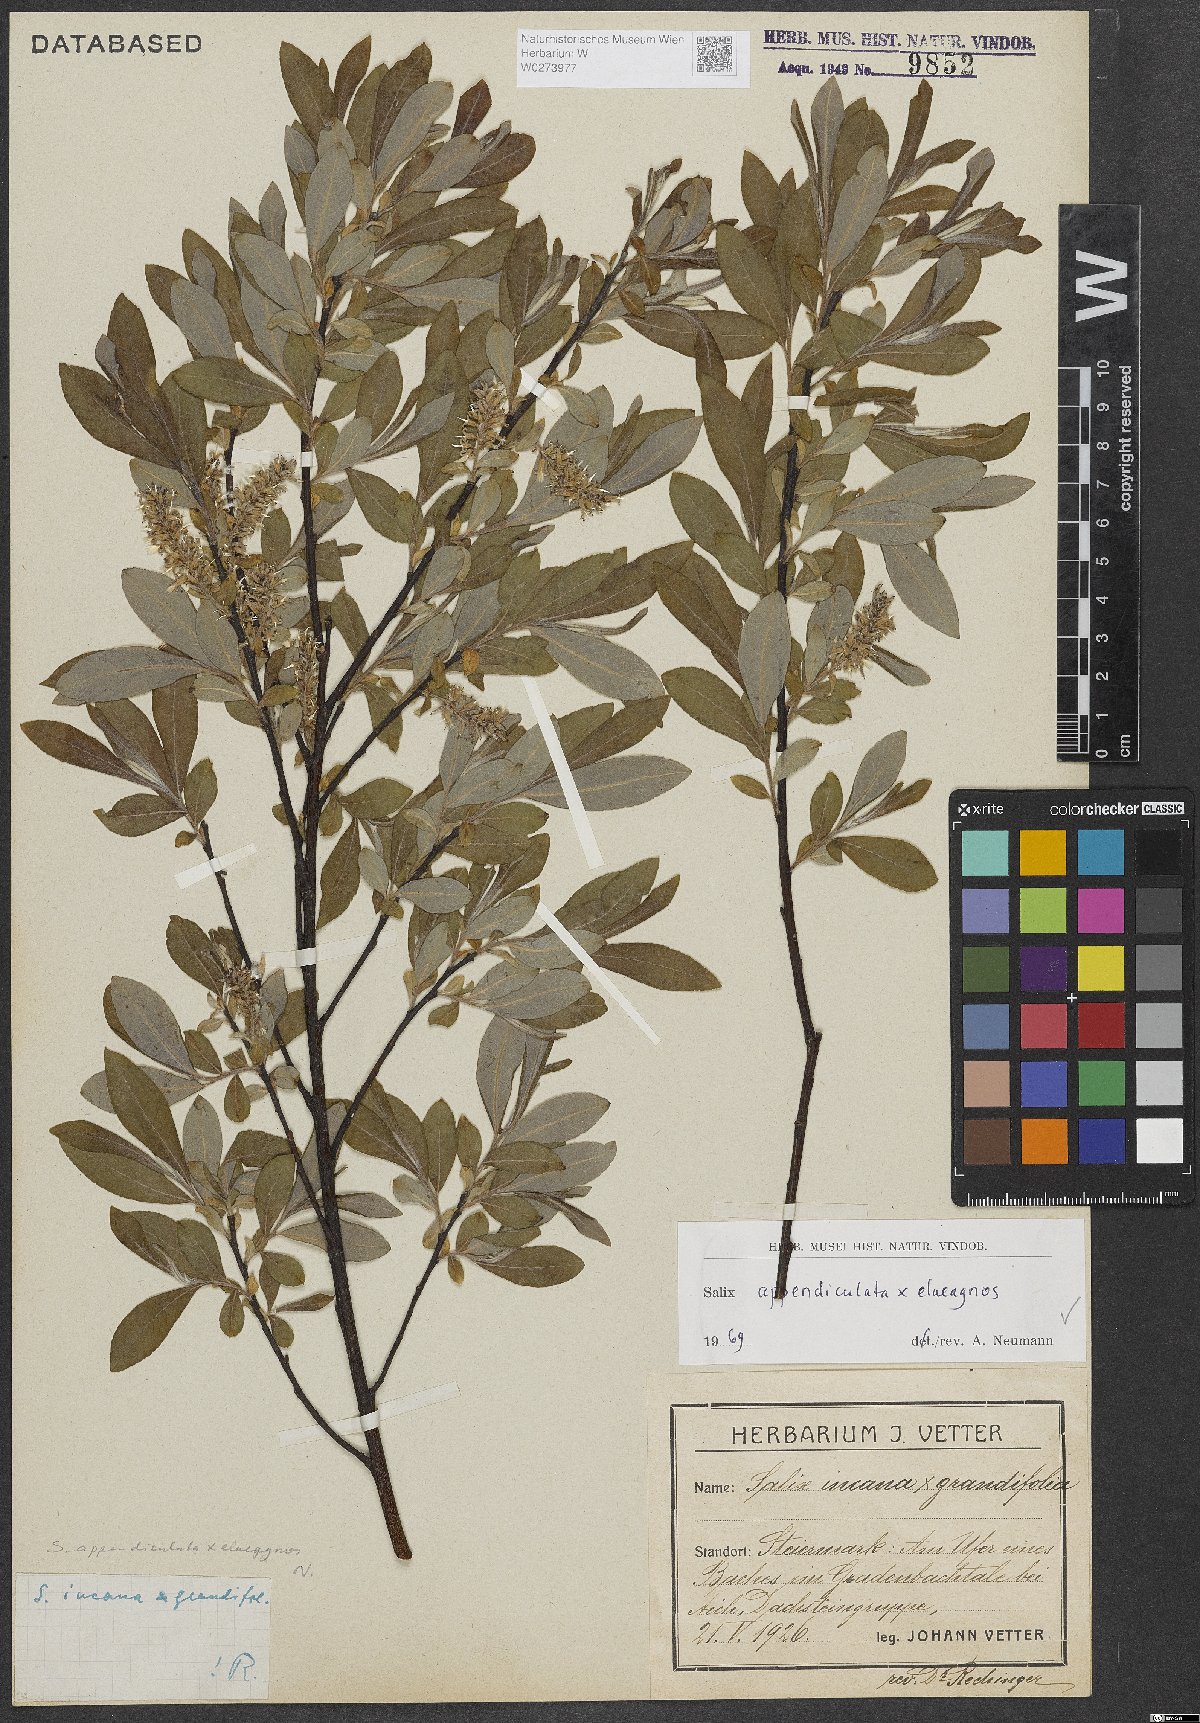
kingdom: Plantae
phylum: Tracheophyta
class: Magnoliopsida
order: Malpighiales
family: Salicaceae
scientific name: Salicaceae
